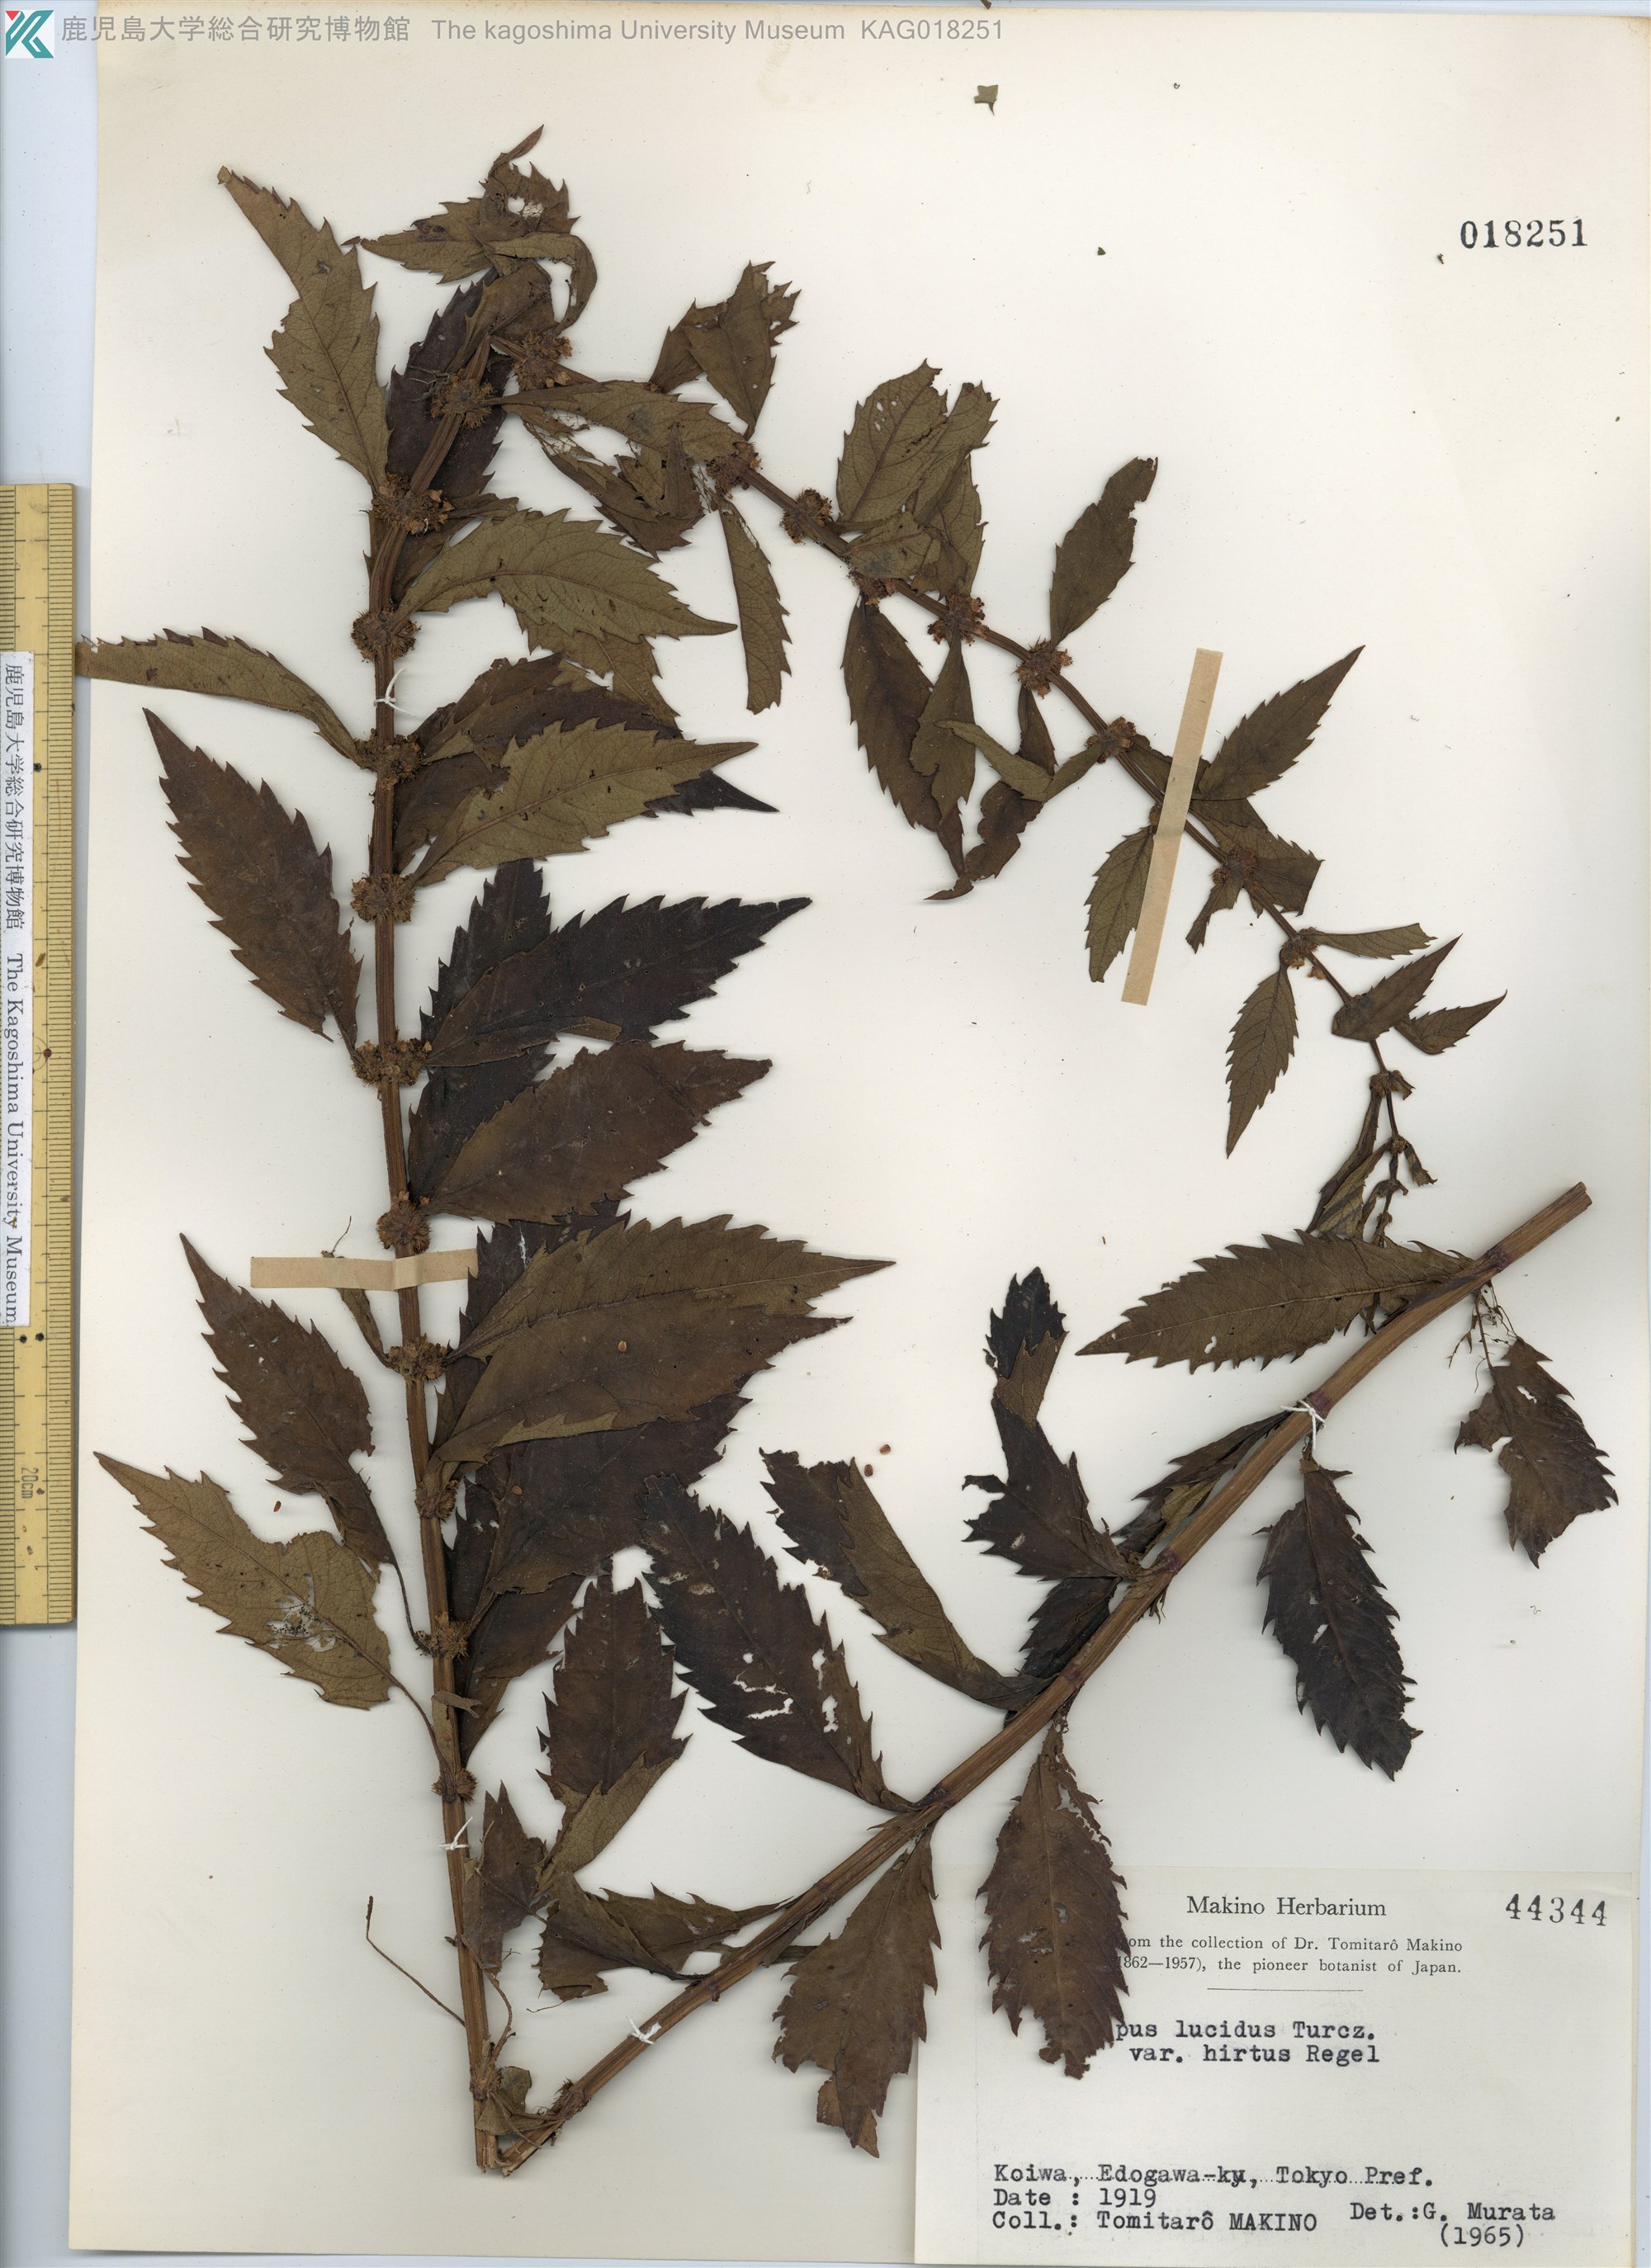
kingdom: Plantae
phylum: Tracheophyta
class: Magnoliopsida
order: Lamiales
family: Lamiaceae
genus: Lycopus
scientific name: Lycopus lucidus
